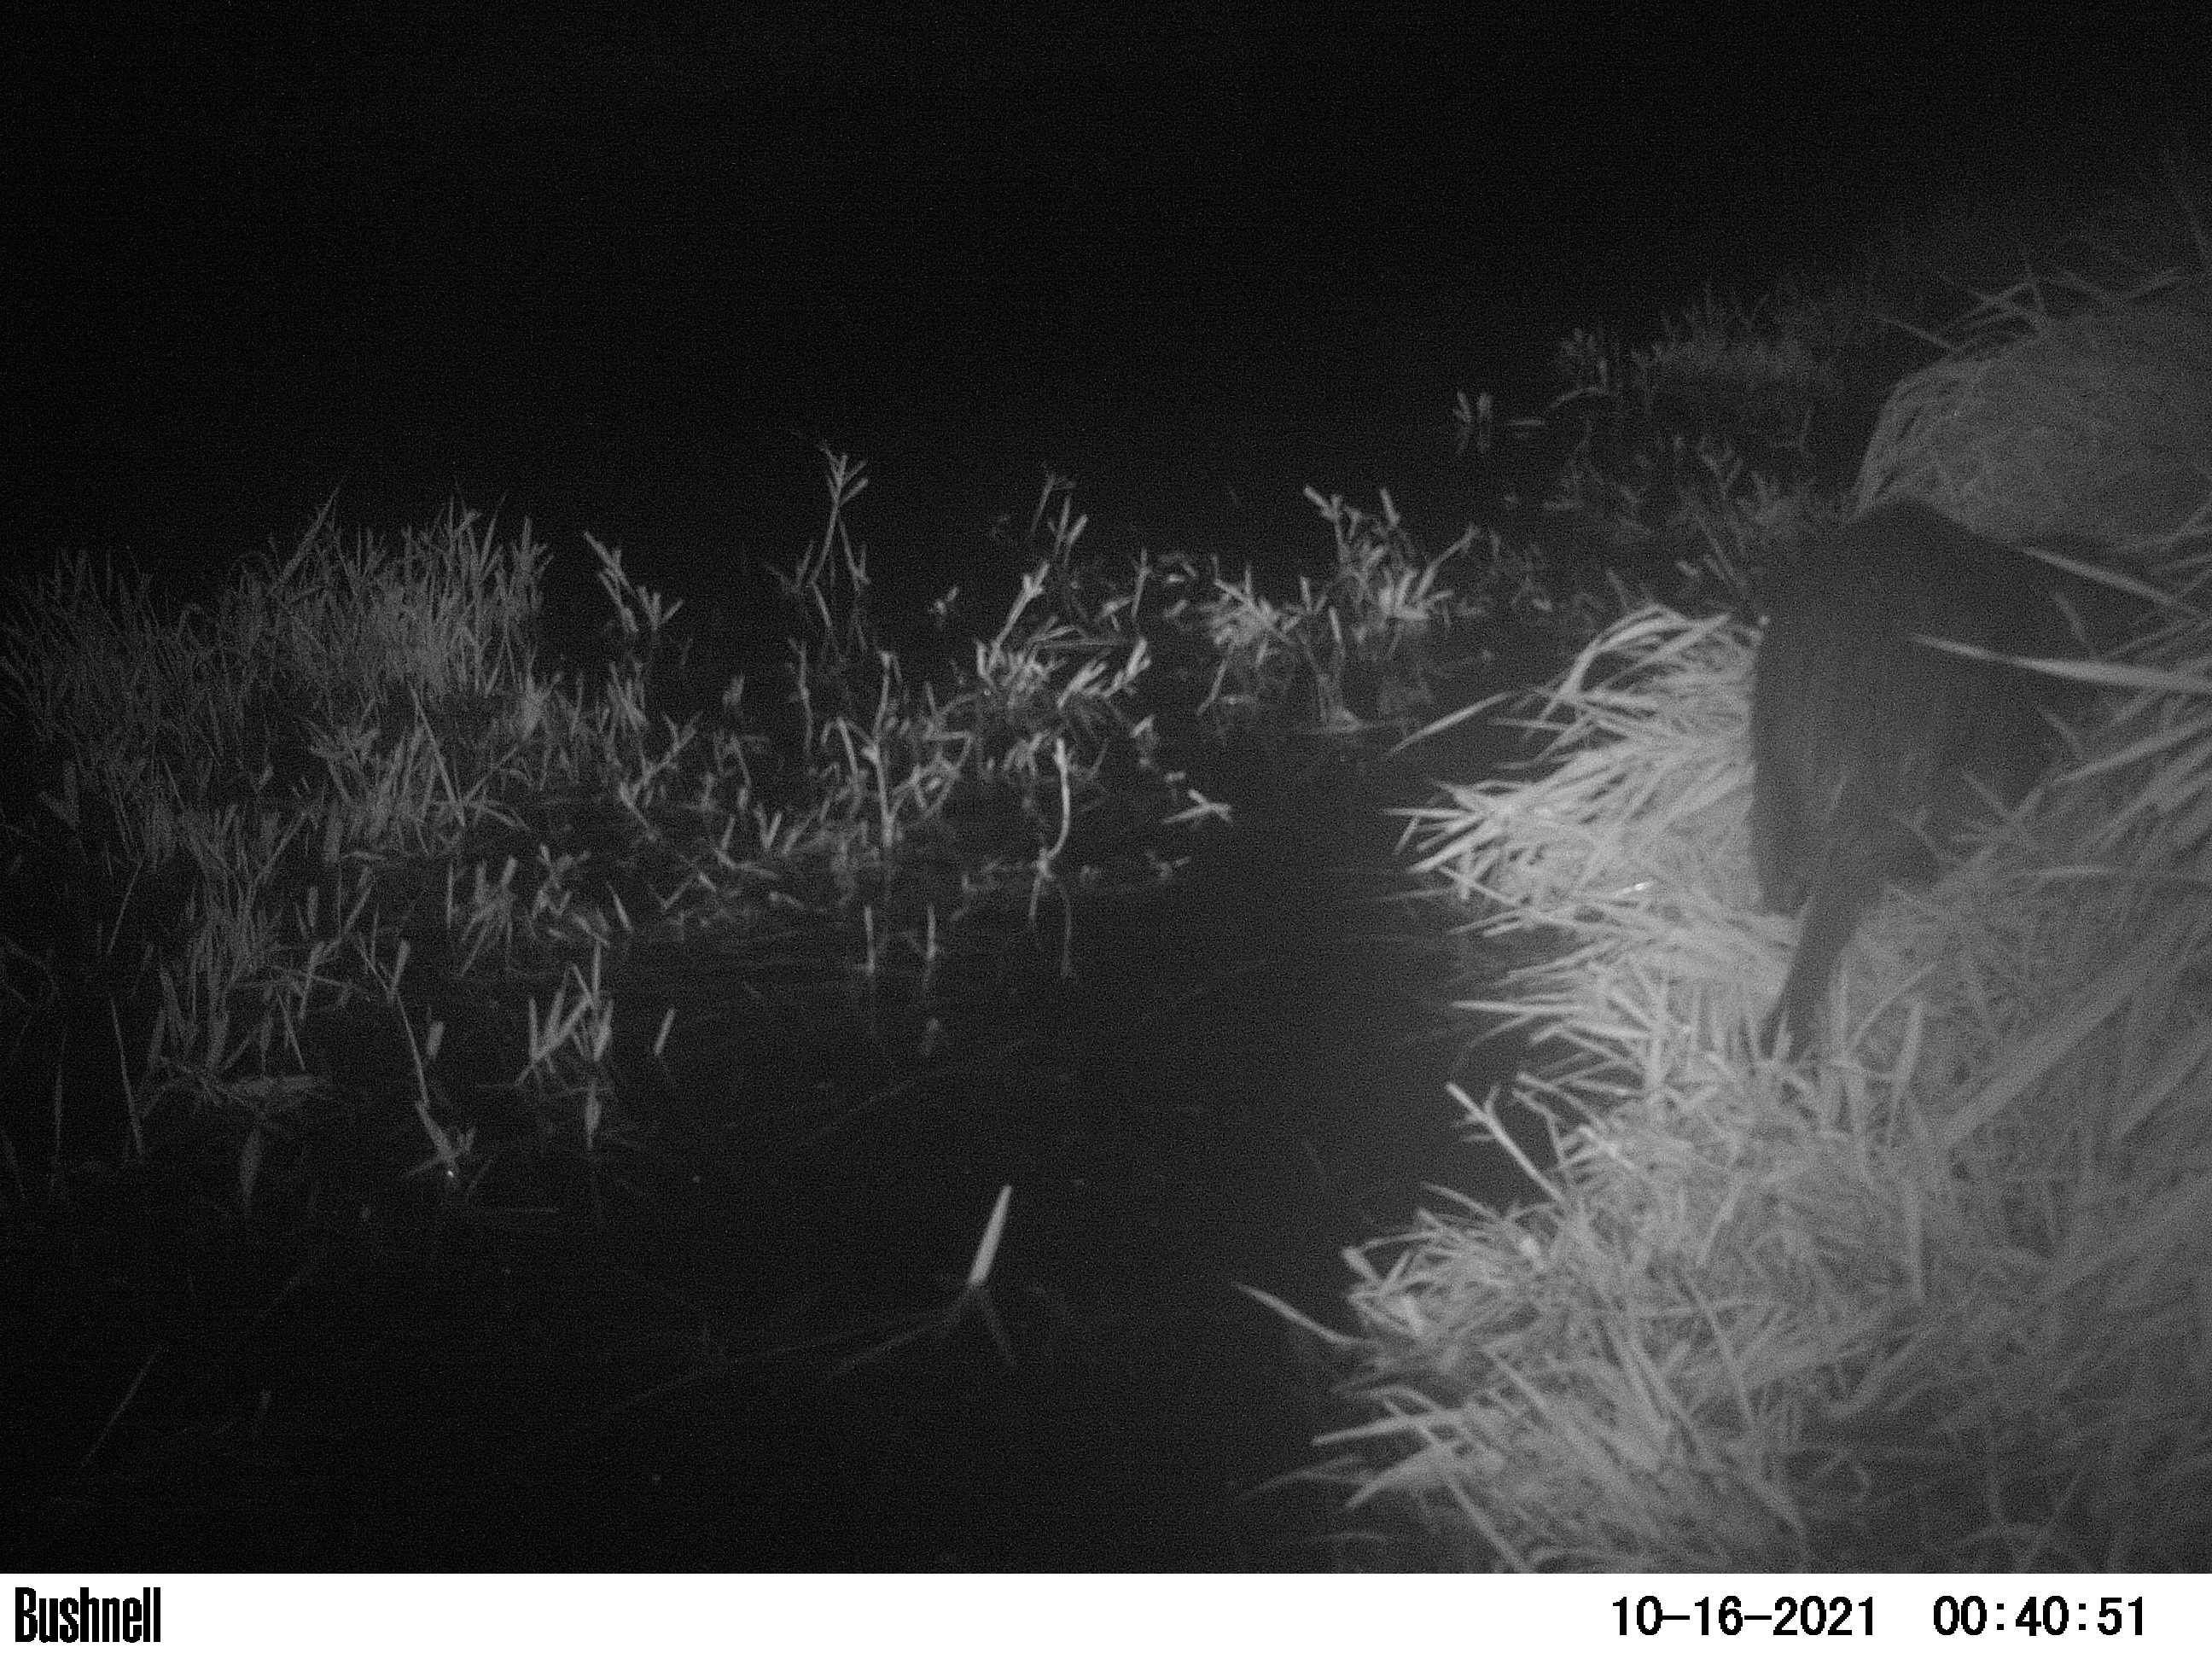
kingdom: Animalia
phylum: Chordata
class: Mammalia
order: Rodentia
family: Myocastoridae
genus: Myocastor
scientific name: Myocastor coypus
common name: Coypu
